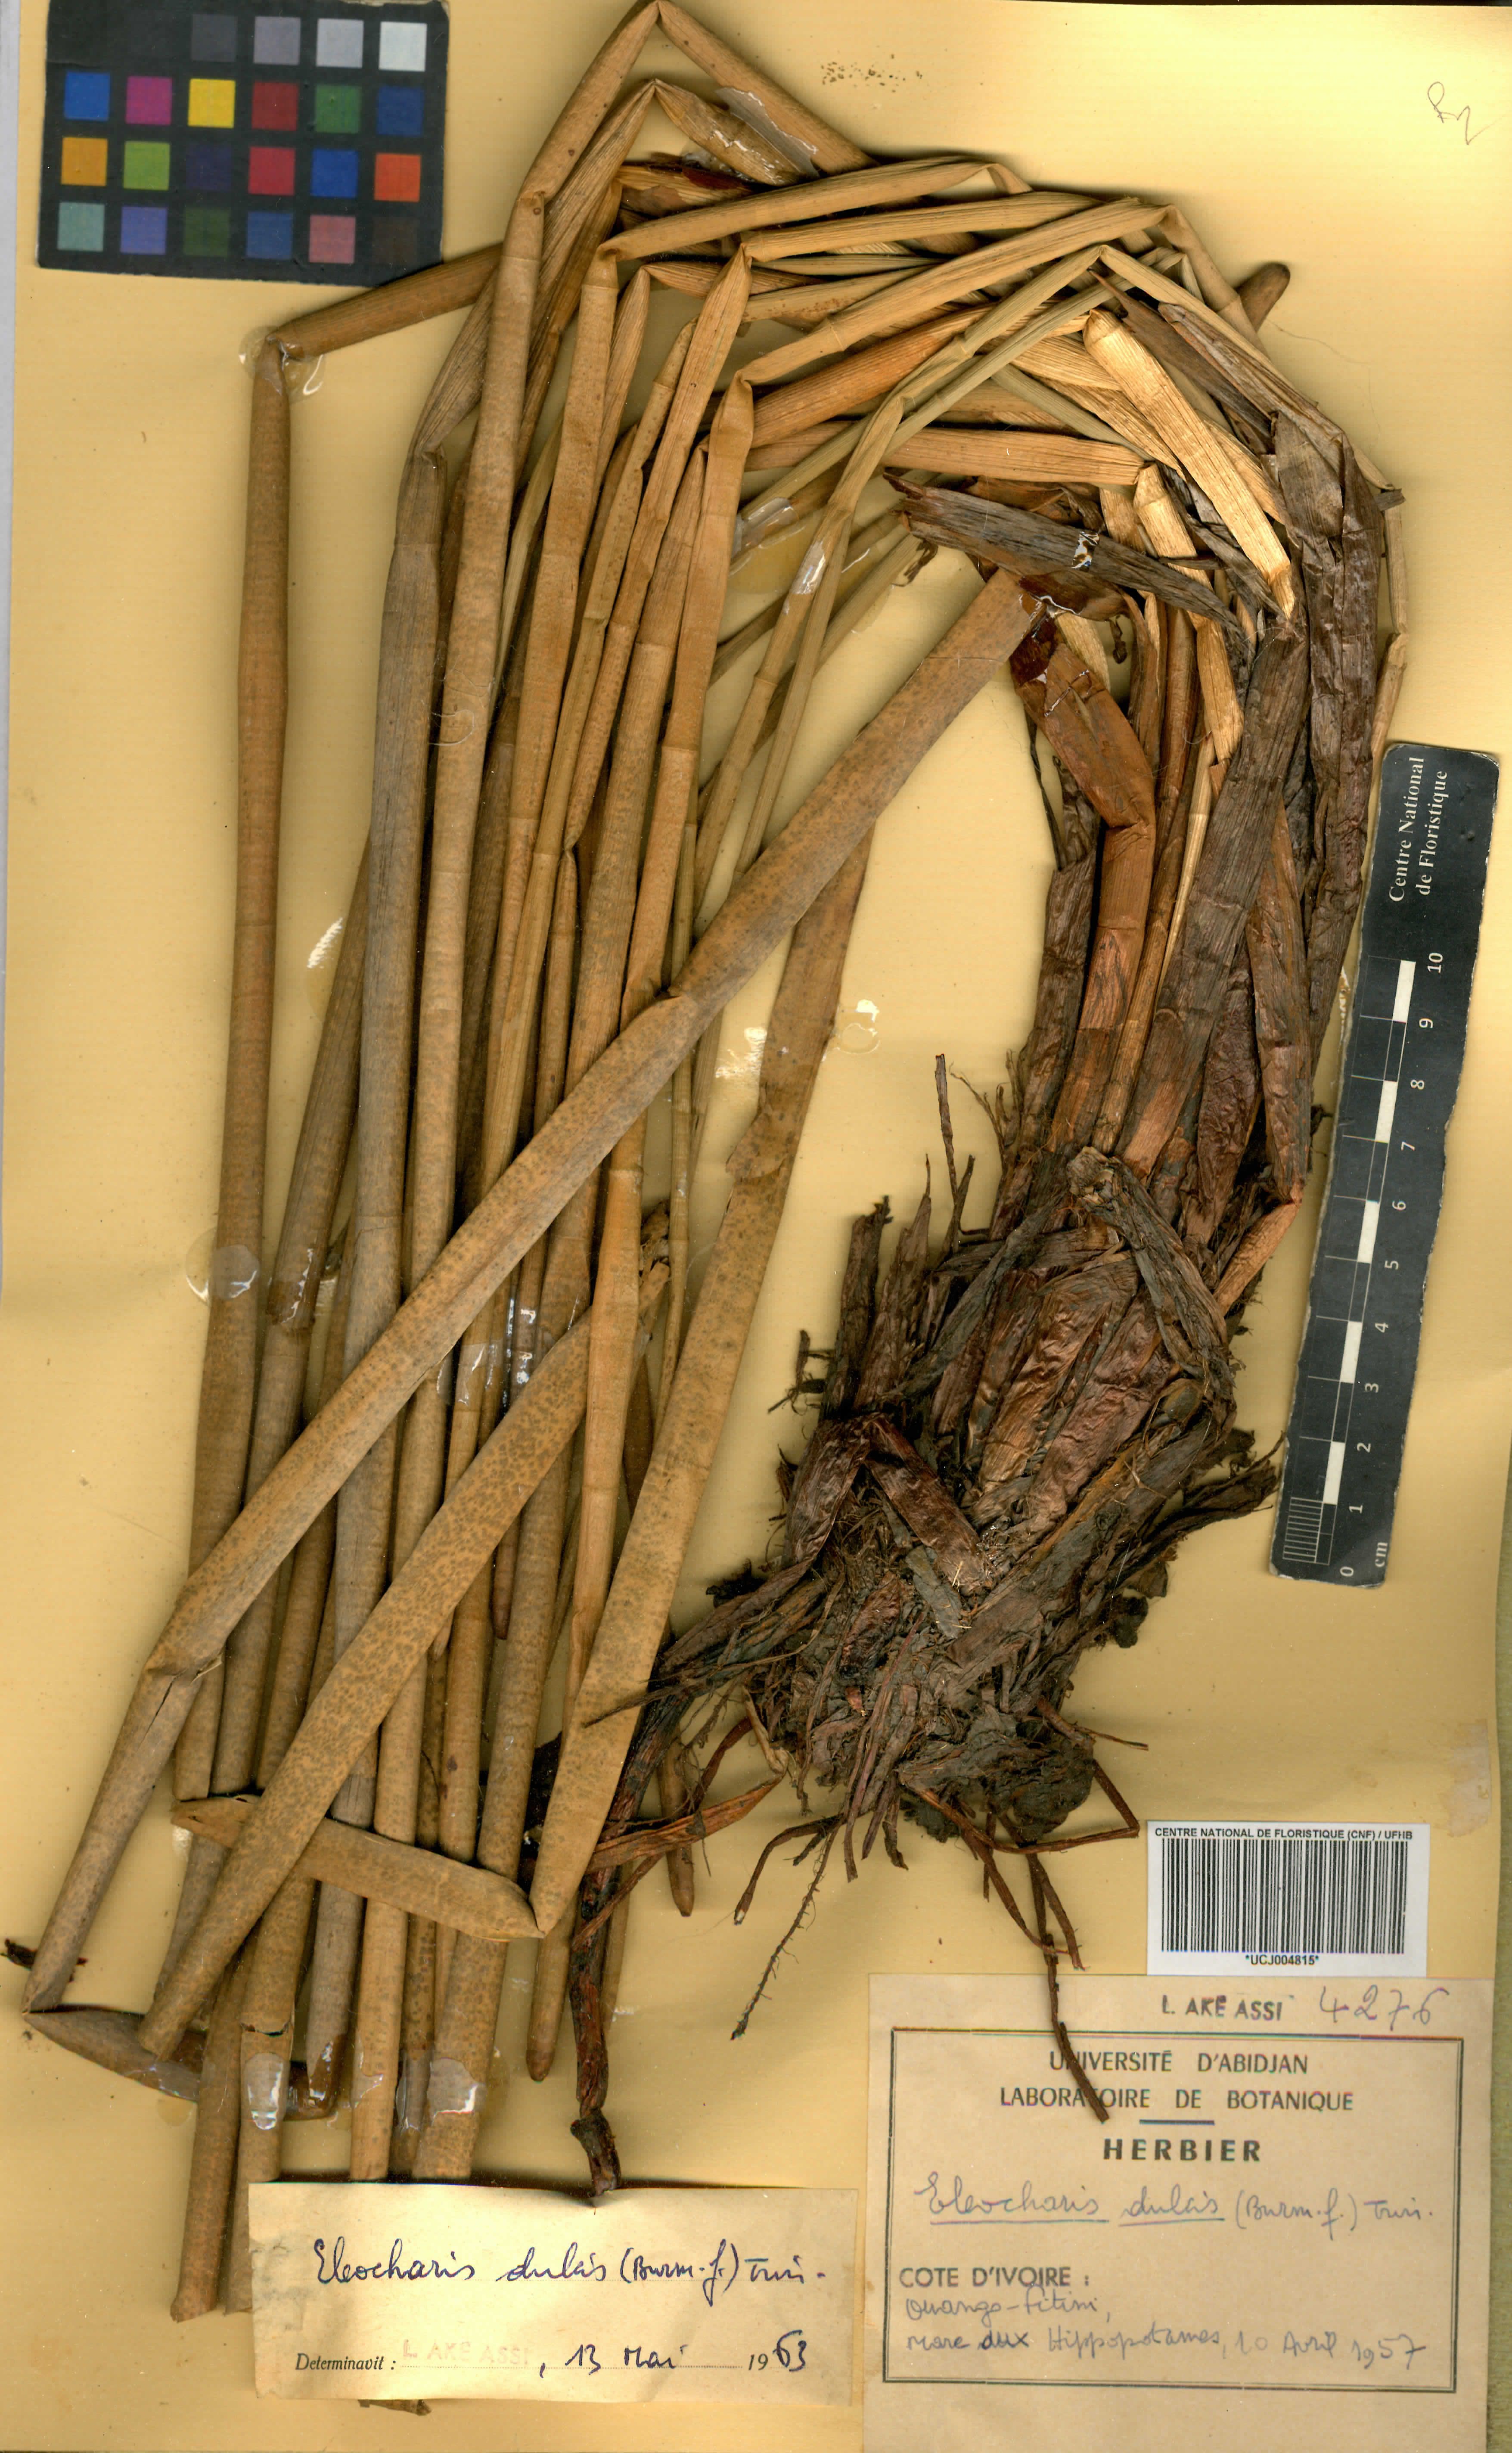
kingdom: Plantae
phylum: Tracheophyta
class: Liliopsida
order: Poales
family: Cyperaceae
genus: Eleocharis
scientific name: Eleocharis dulcis
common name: Chinese water chestnut
